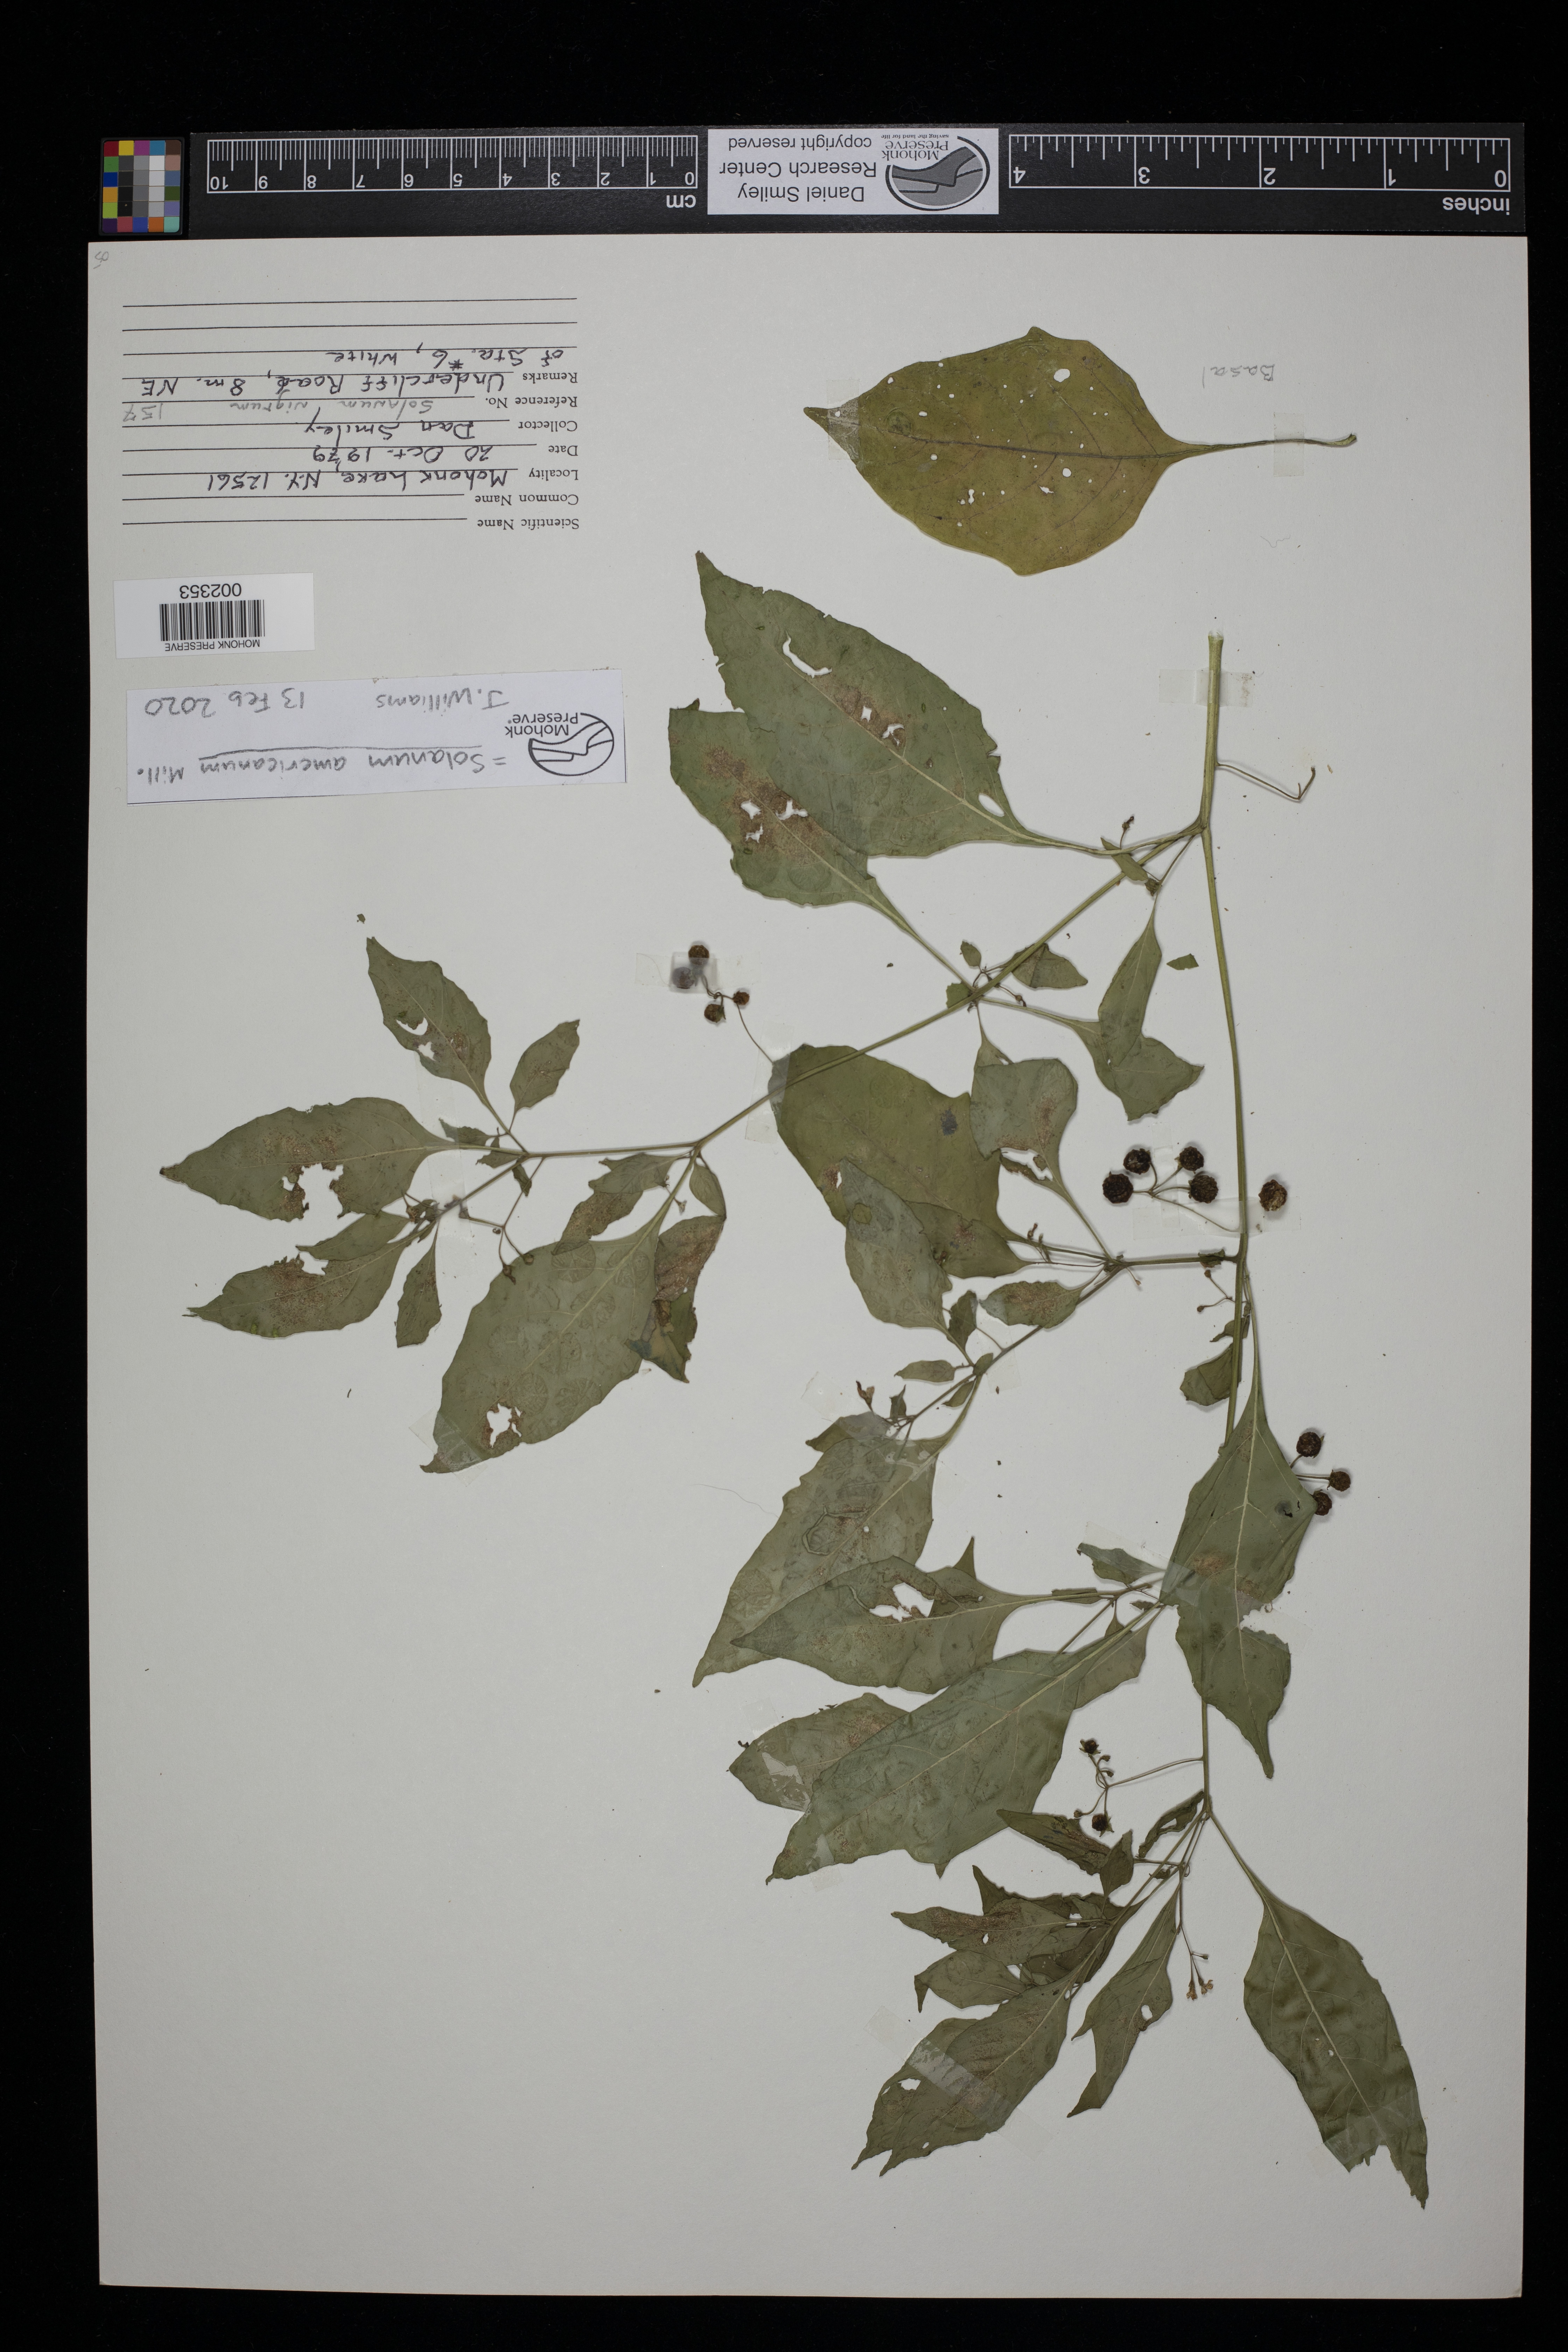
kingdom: Plantae
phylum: Tracheophyta
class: Magnoliopsida
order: Solanales
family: Solanaceae
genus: Solanum
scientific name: Solanum americanum
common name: American black nightshade
